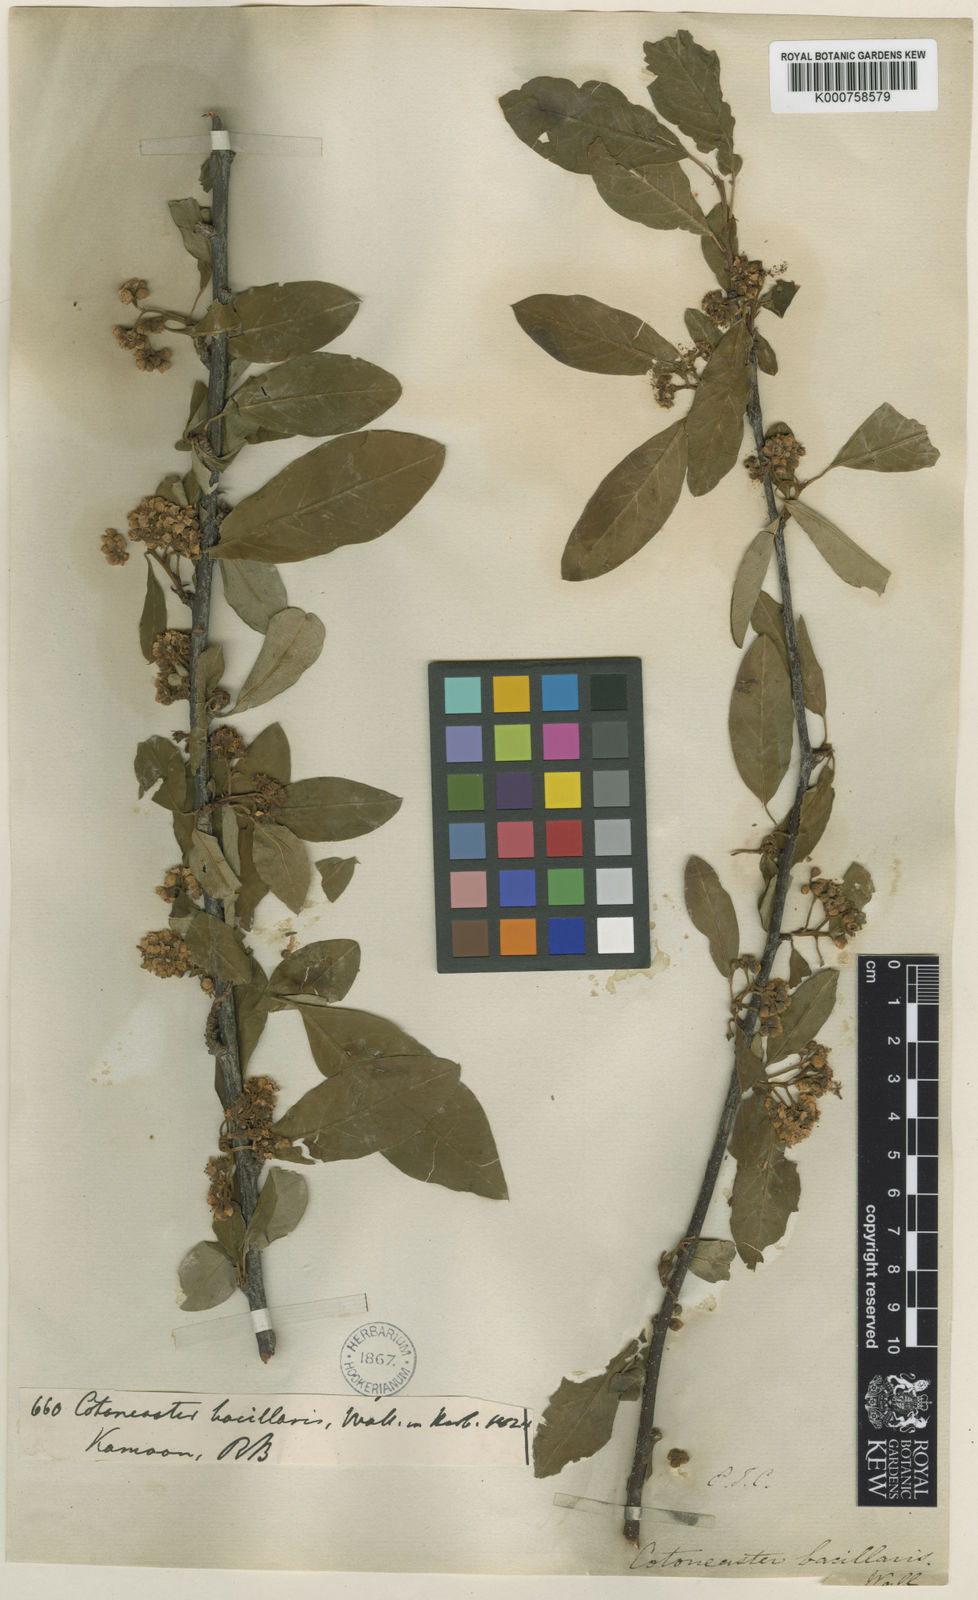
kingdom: Plantae
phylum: Tracheophyta
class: Magnoliopsida
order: Rosales
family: Rosaceae
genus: Cotoneaster
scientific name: Cotoneaster affinis
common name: Purpleberry cotoneaster
